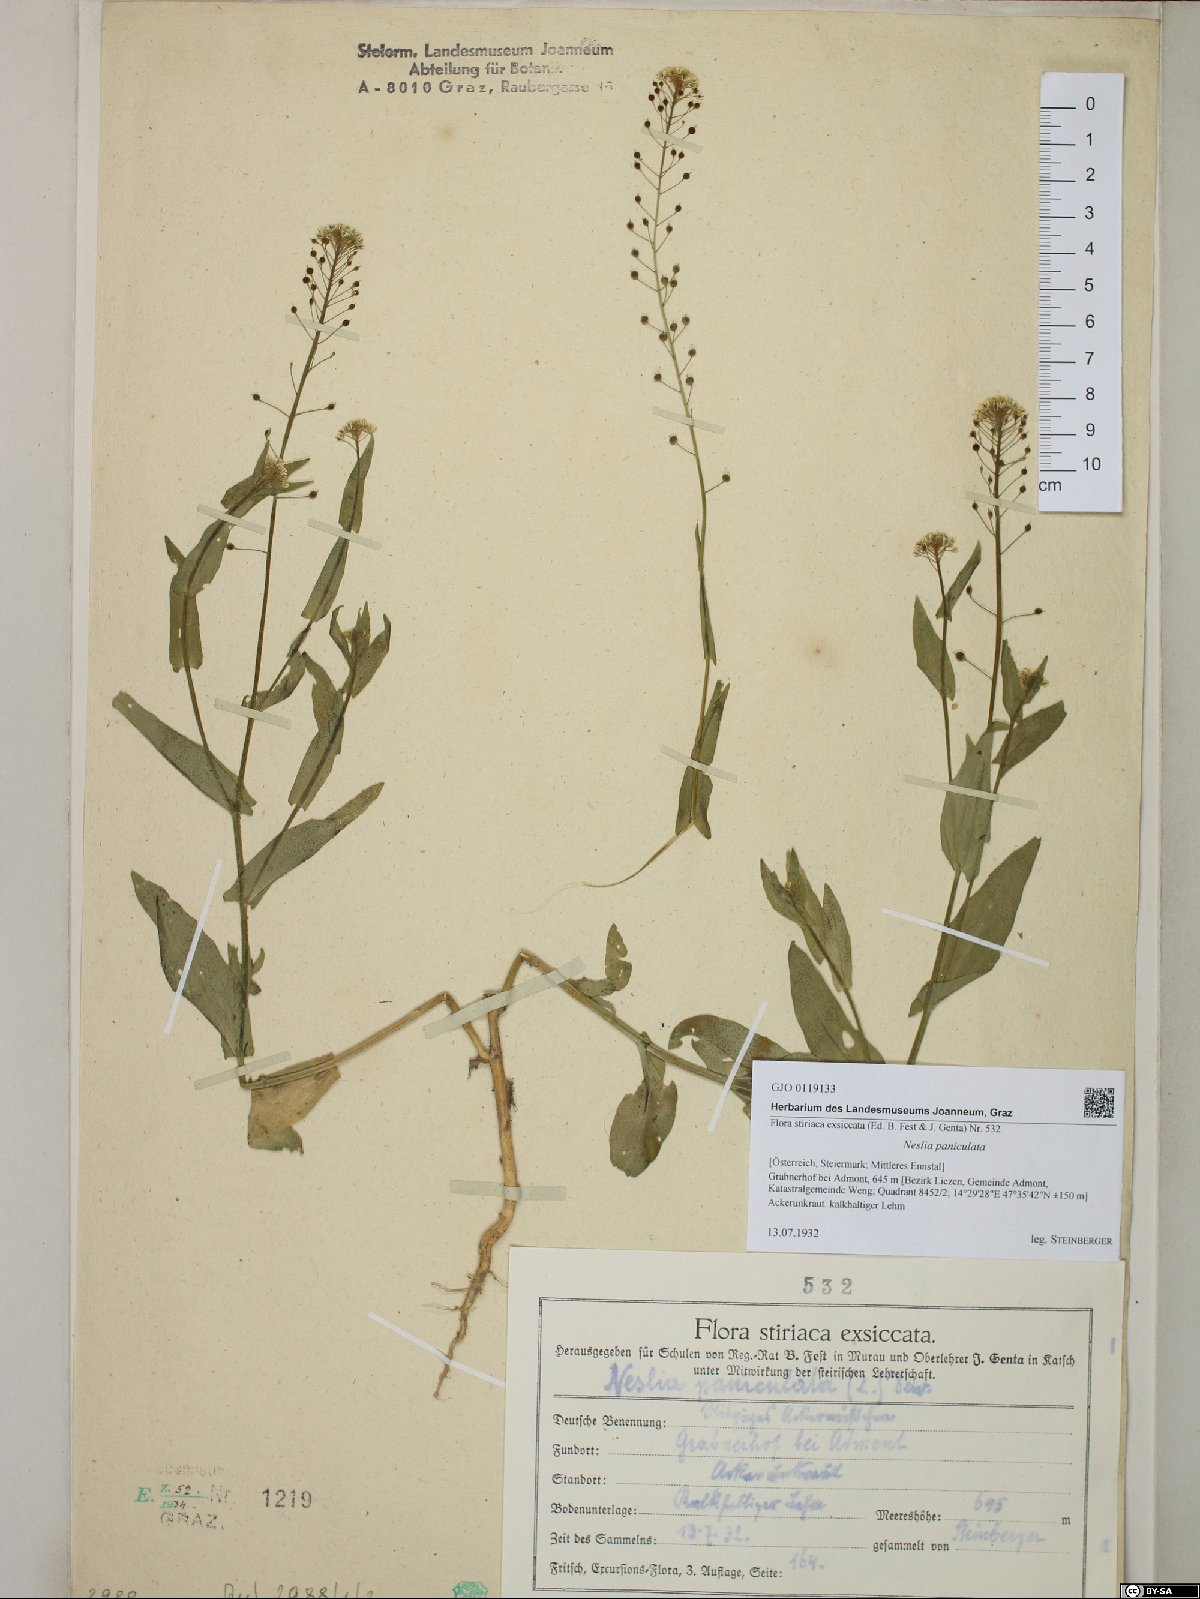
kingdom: Plantae
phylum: Tracheophyta
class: Magnoliopsida
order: Brassicales
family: Brassicaceae
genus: Neslia
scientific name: Neslia paniculata
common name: Ball mustard
